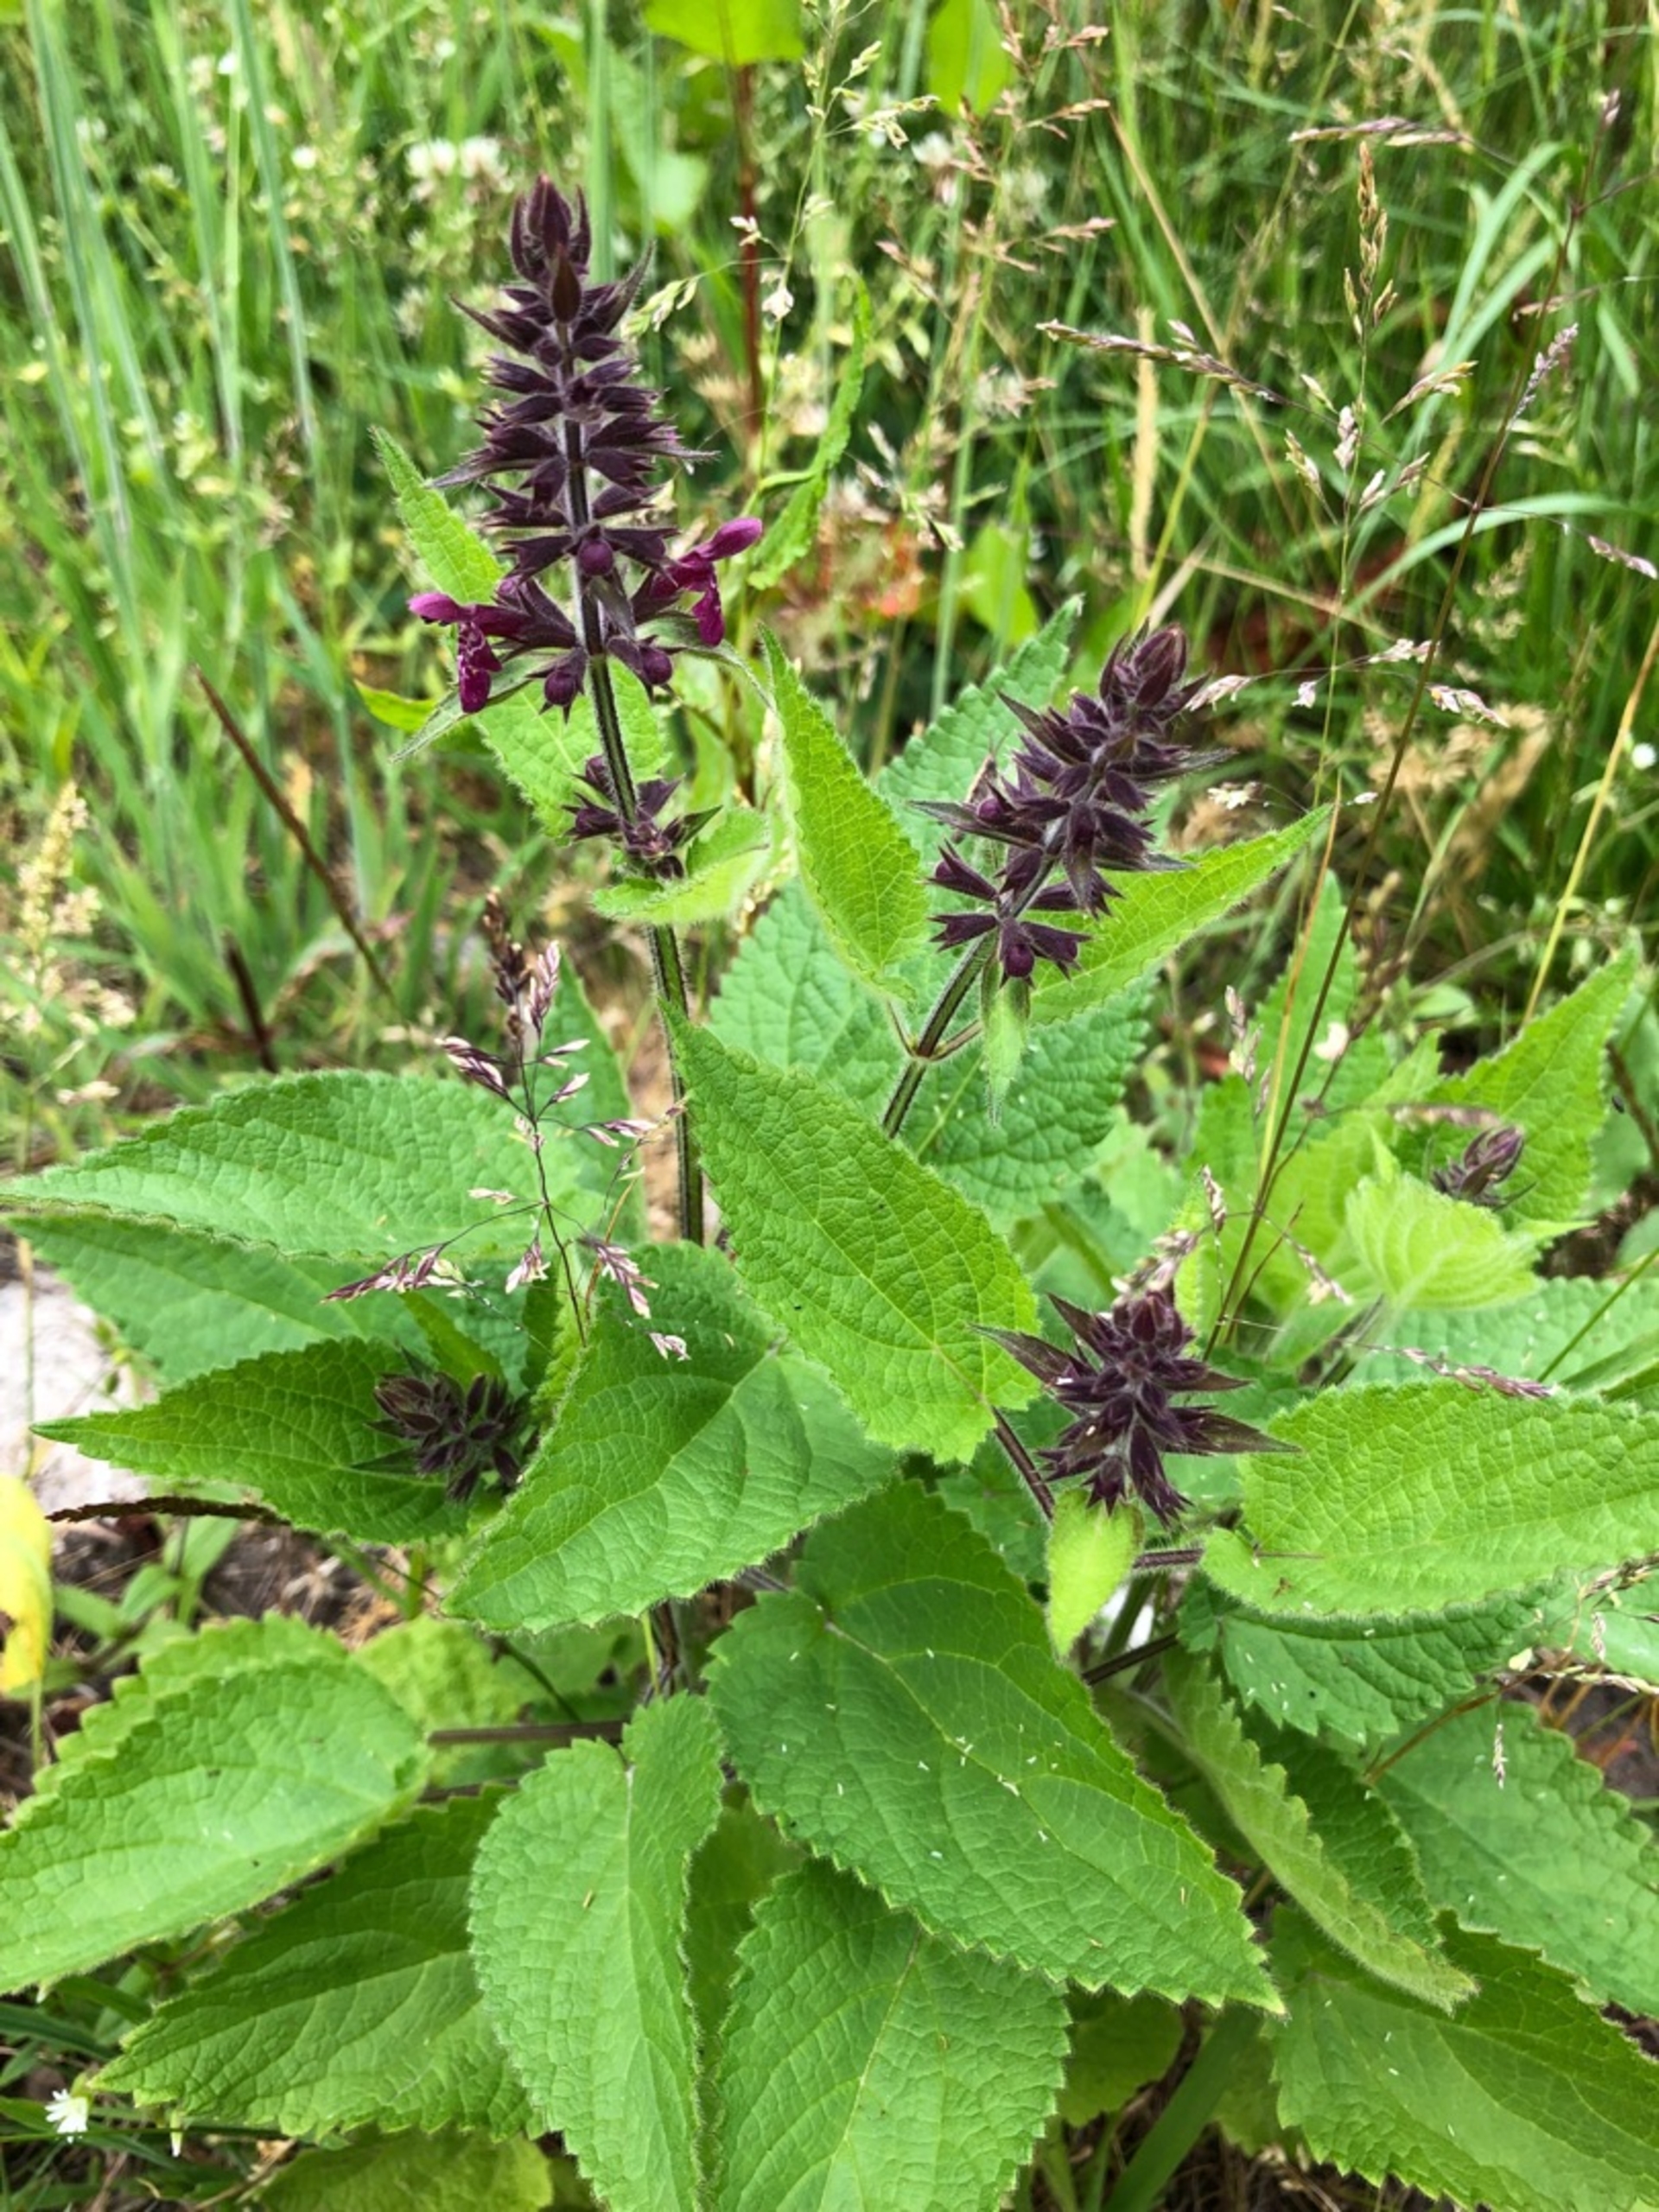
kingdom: Plantae
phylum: Tracheophyta
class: Magnoliopsida
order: Lamiales
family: Lamiaceae
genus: Stachys
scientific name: Stachys sylvatica
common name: Skov-galtetand
